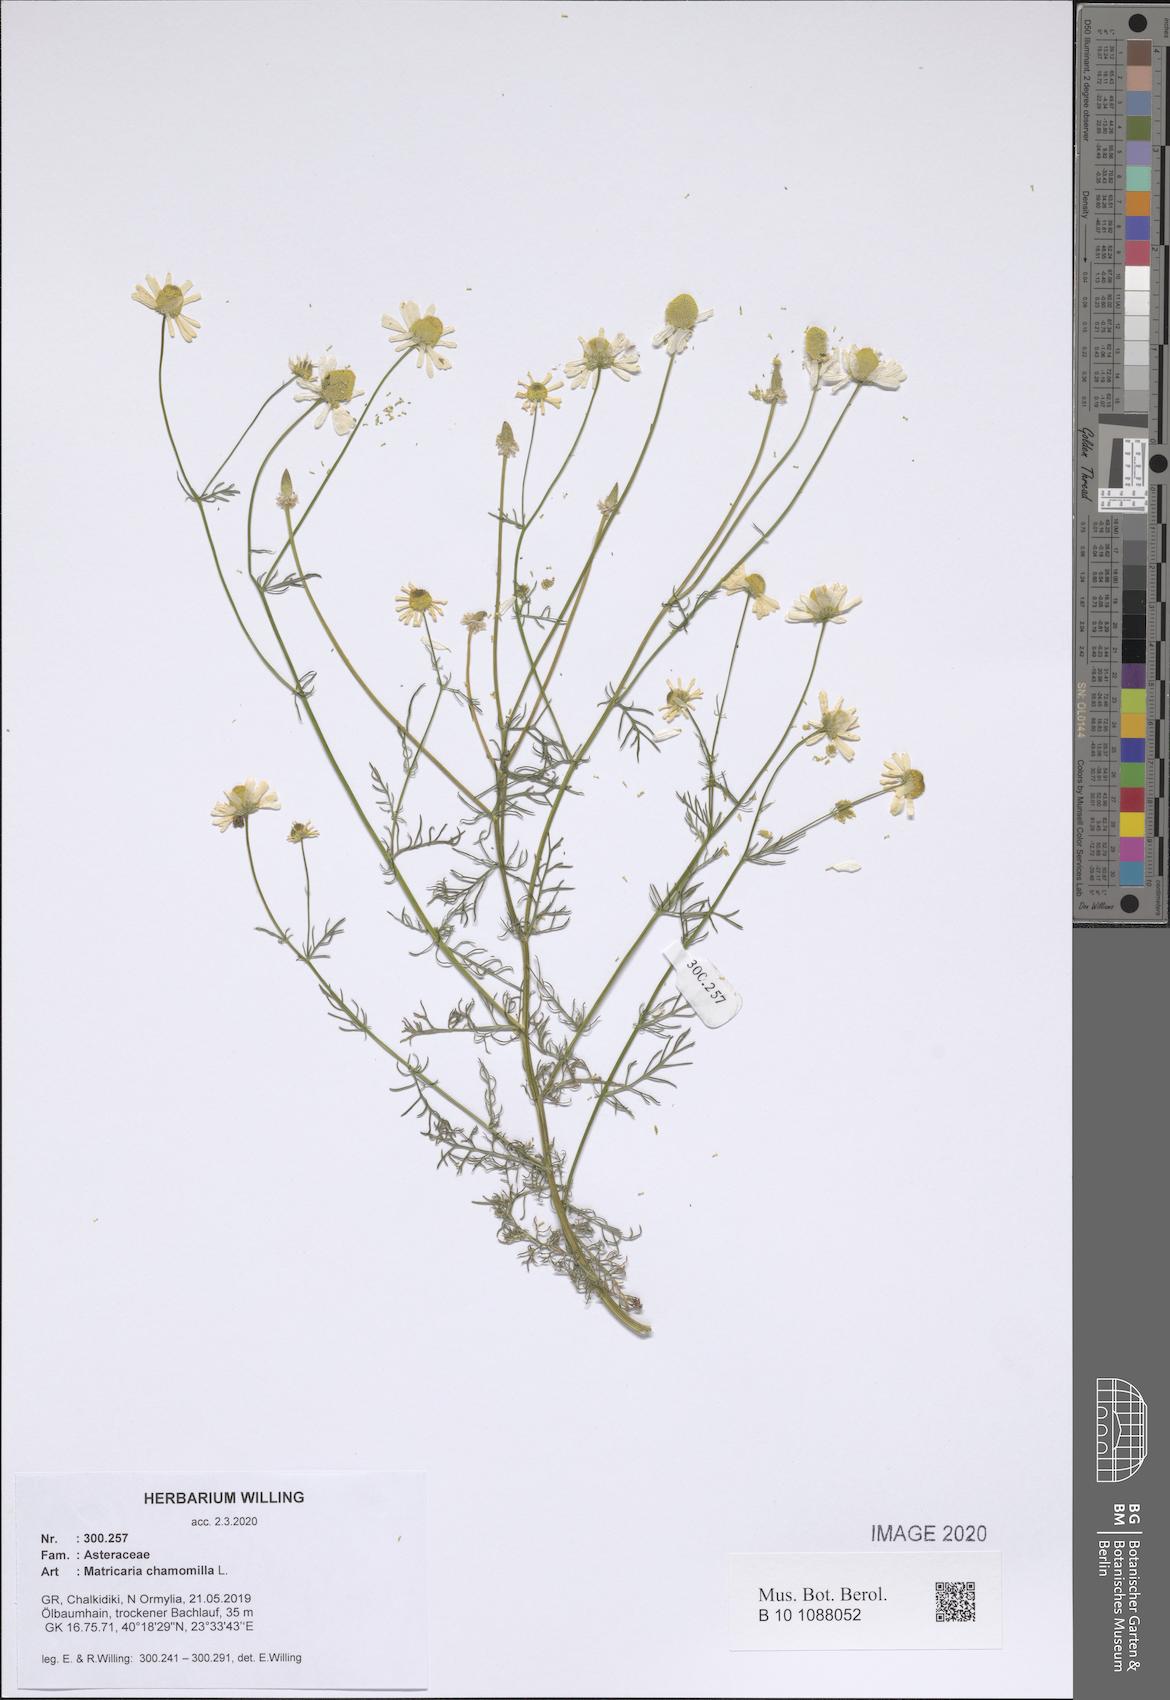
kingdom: Plantae
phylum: Tracheophyta
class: Magnoliopsida
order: Asterales
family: Asteraceae
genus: Matricaria
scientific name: Matricaria chamomilla
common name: Scented mayweed
